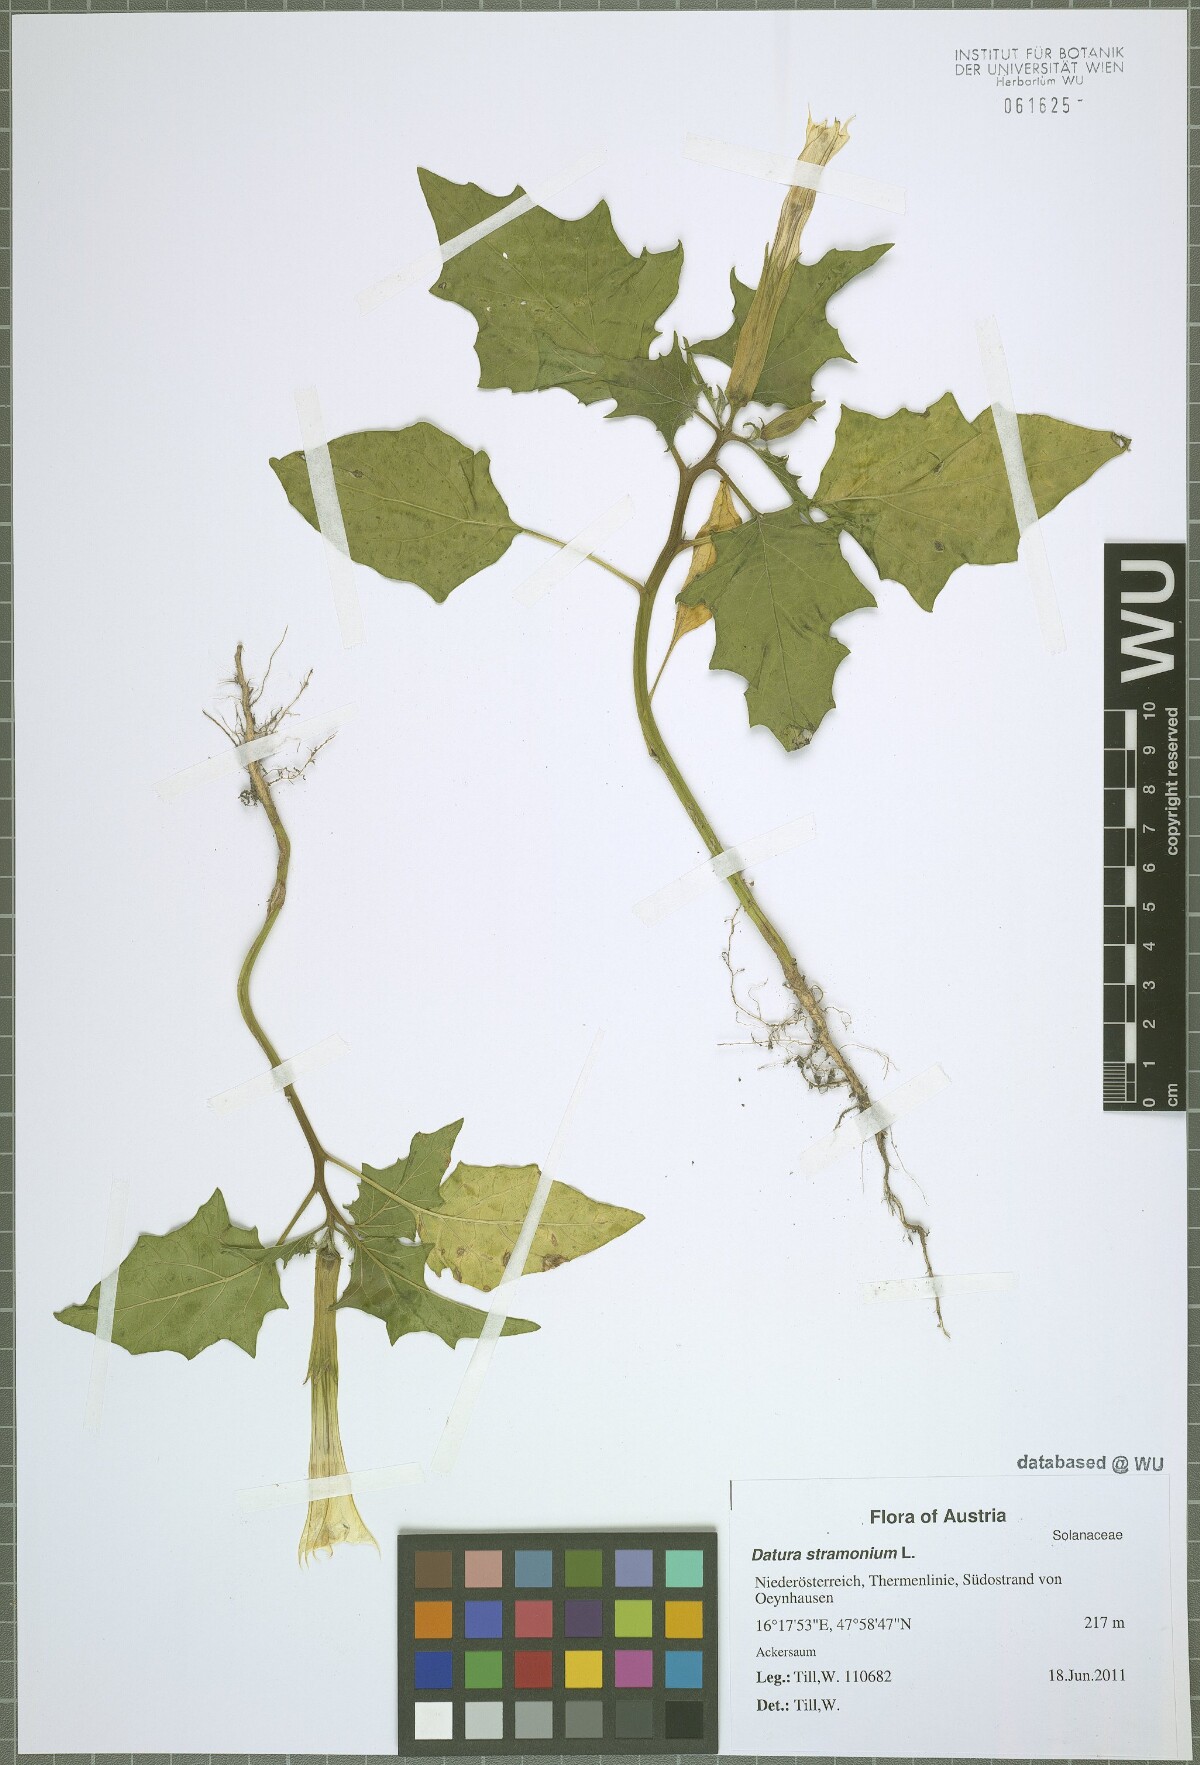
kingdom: Plantae
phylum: Tracheophyta
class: Magnoliopsida
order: Solanales
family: Solanaceae
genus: Datura
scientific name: Datura stramonium
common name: Thorn-apple
